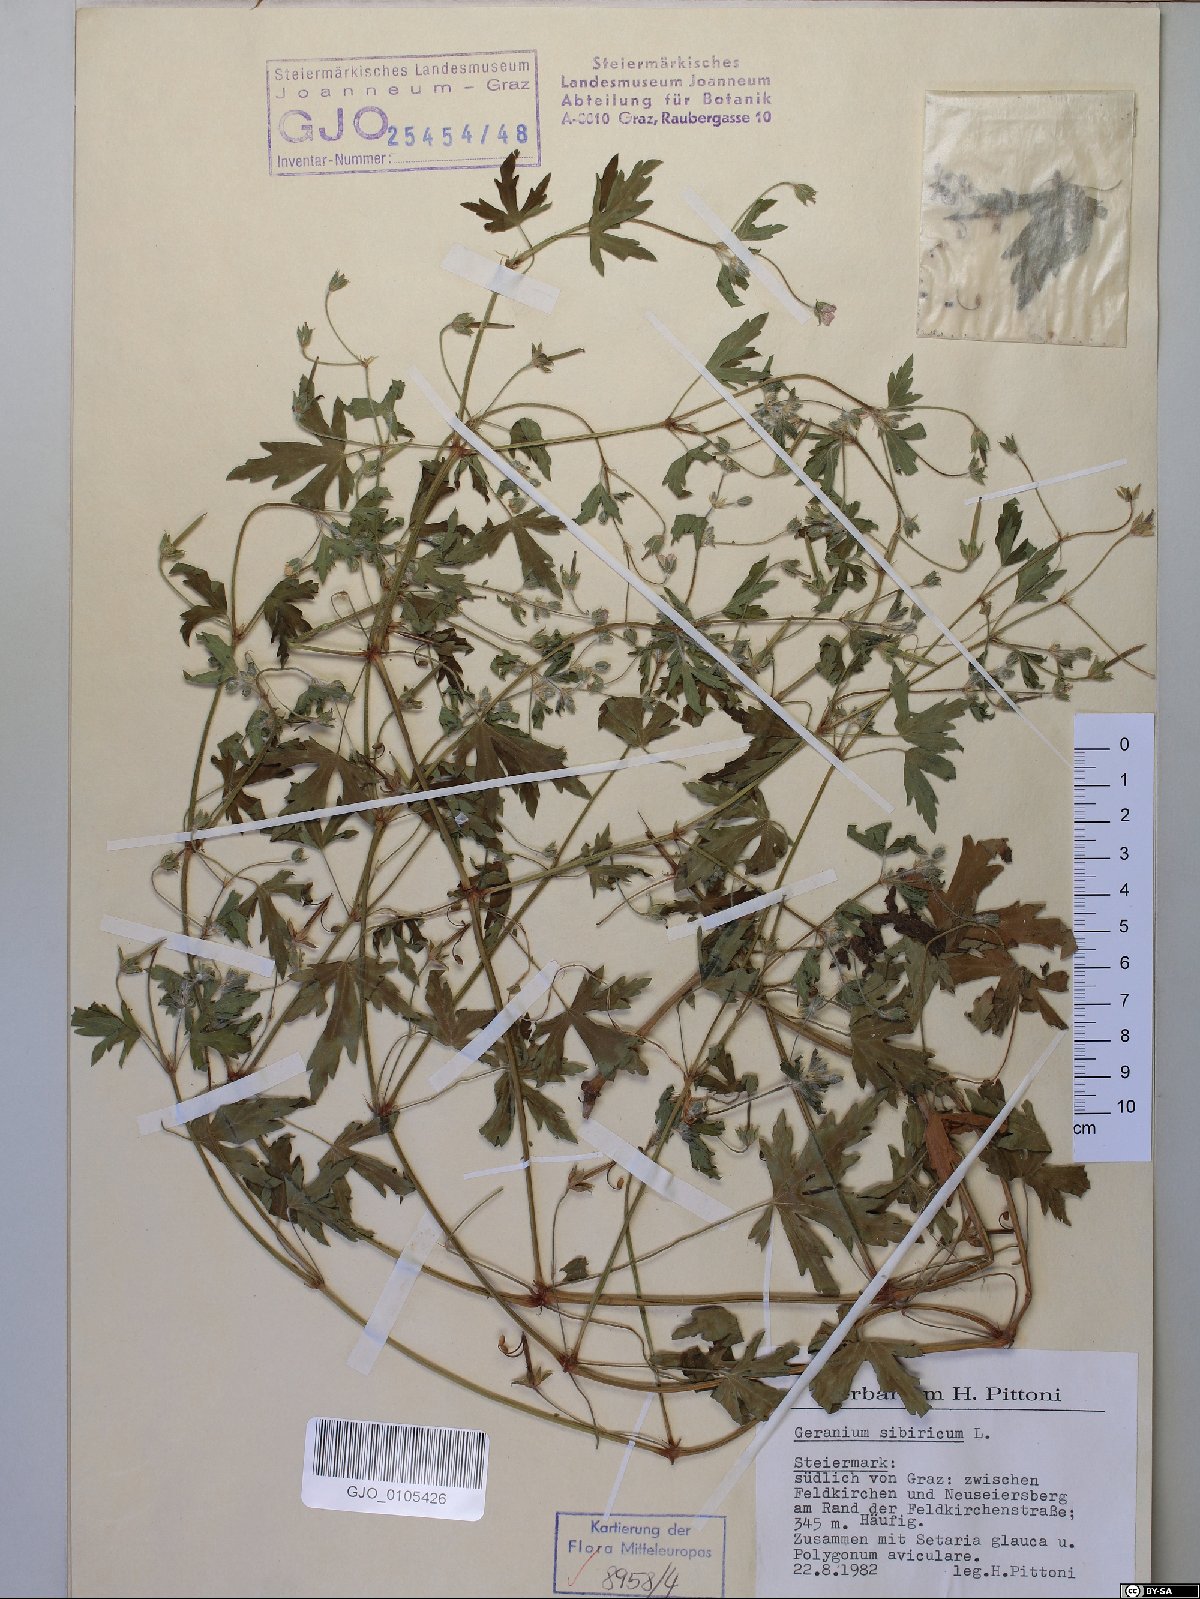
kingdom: Plantae
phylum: Tracheophyta
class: Magnoliopsida
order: Geraniales
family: Geraniaceae
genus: Geranium
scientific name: Geranium sibiricum
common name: Siberian crane's-bill
